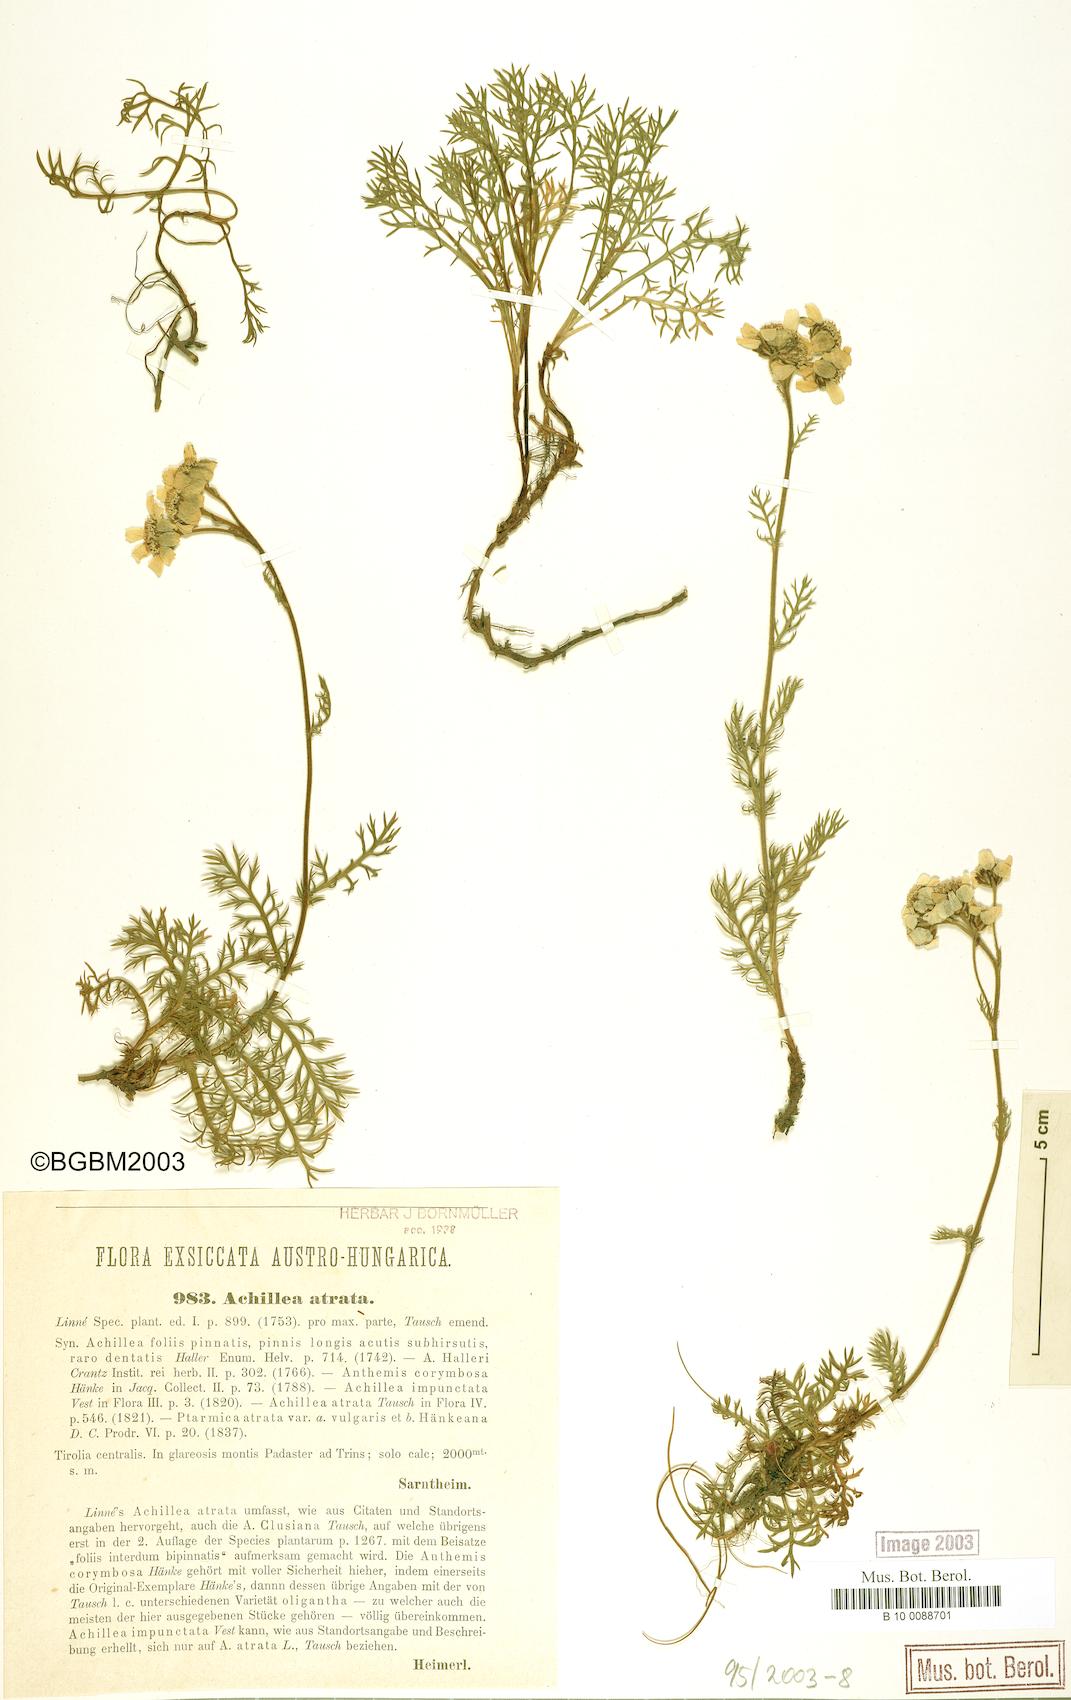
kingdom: Plantae
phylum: Tracheophyta
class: Magnoliopsida
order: Asterales
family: Asteraceae
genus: Achillea
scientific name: Achillea atrata
